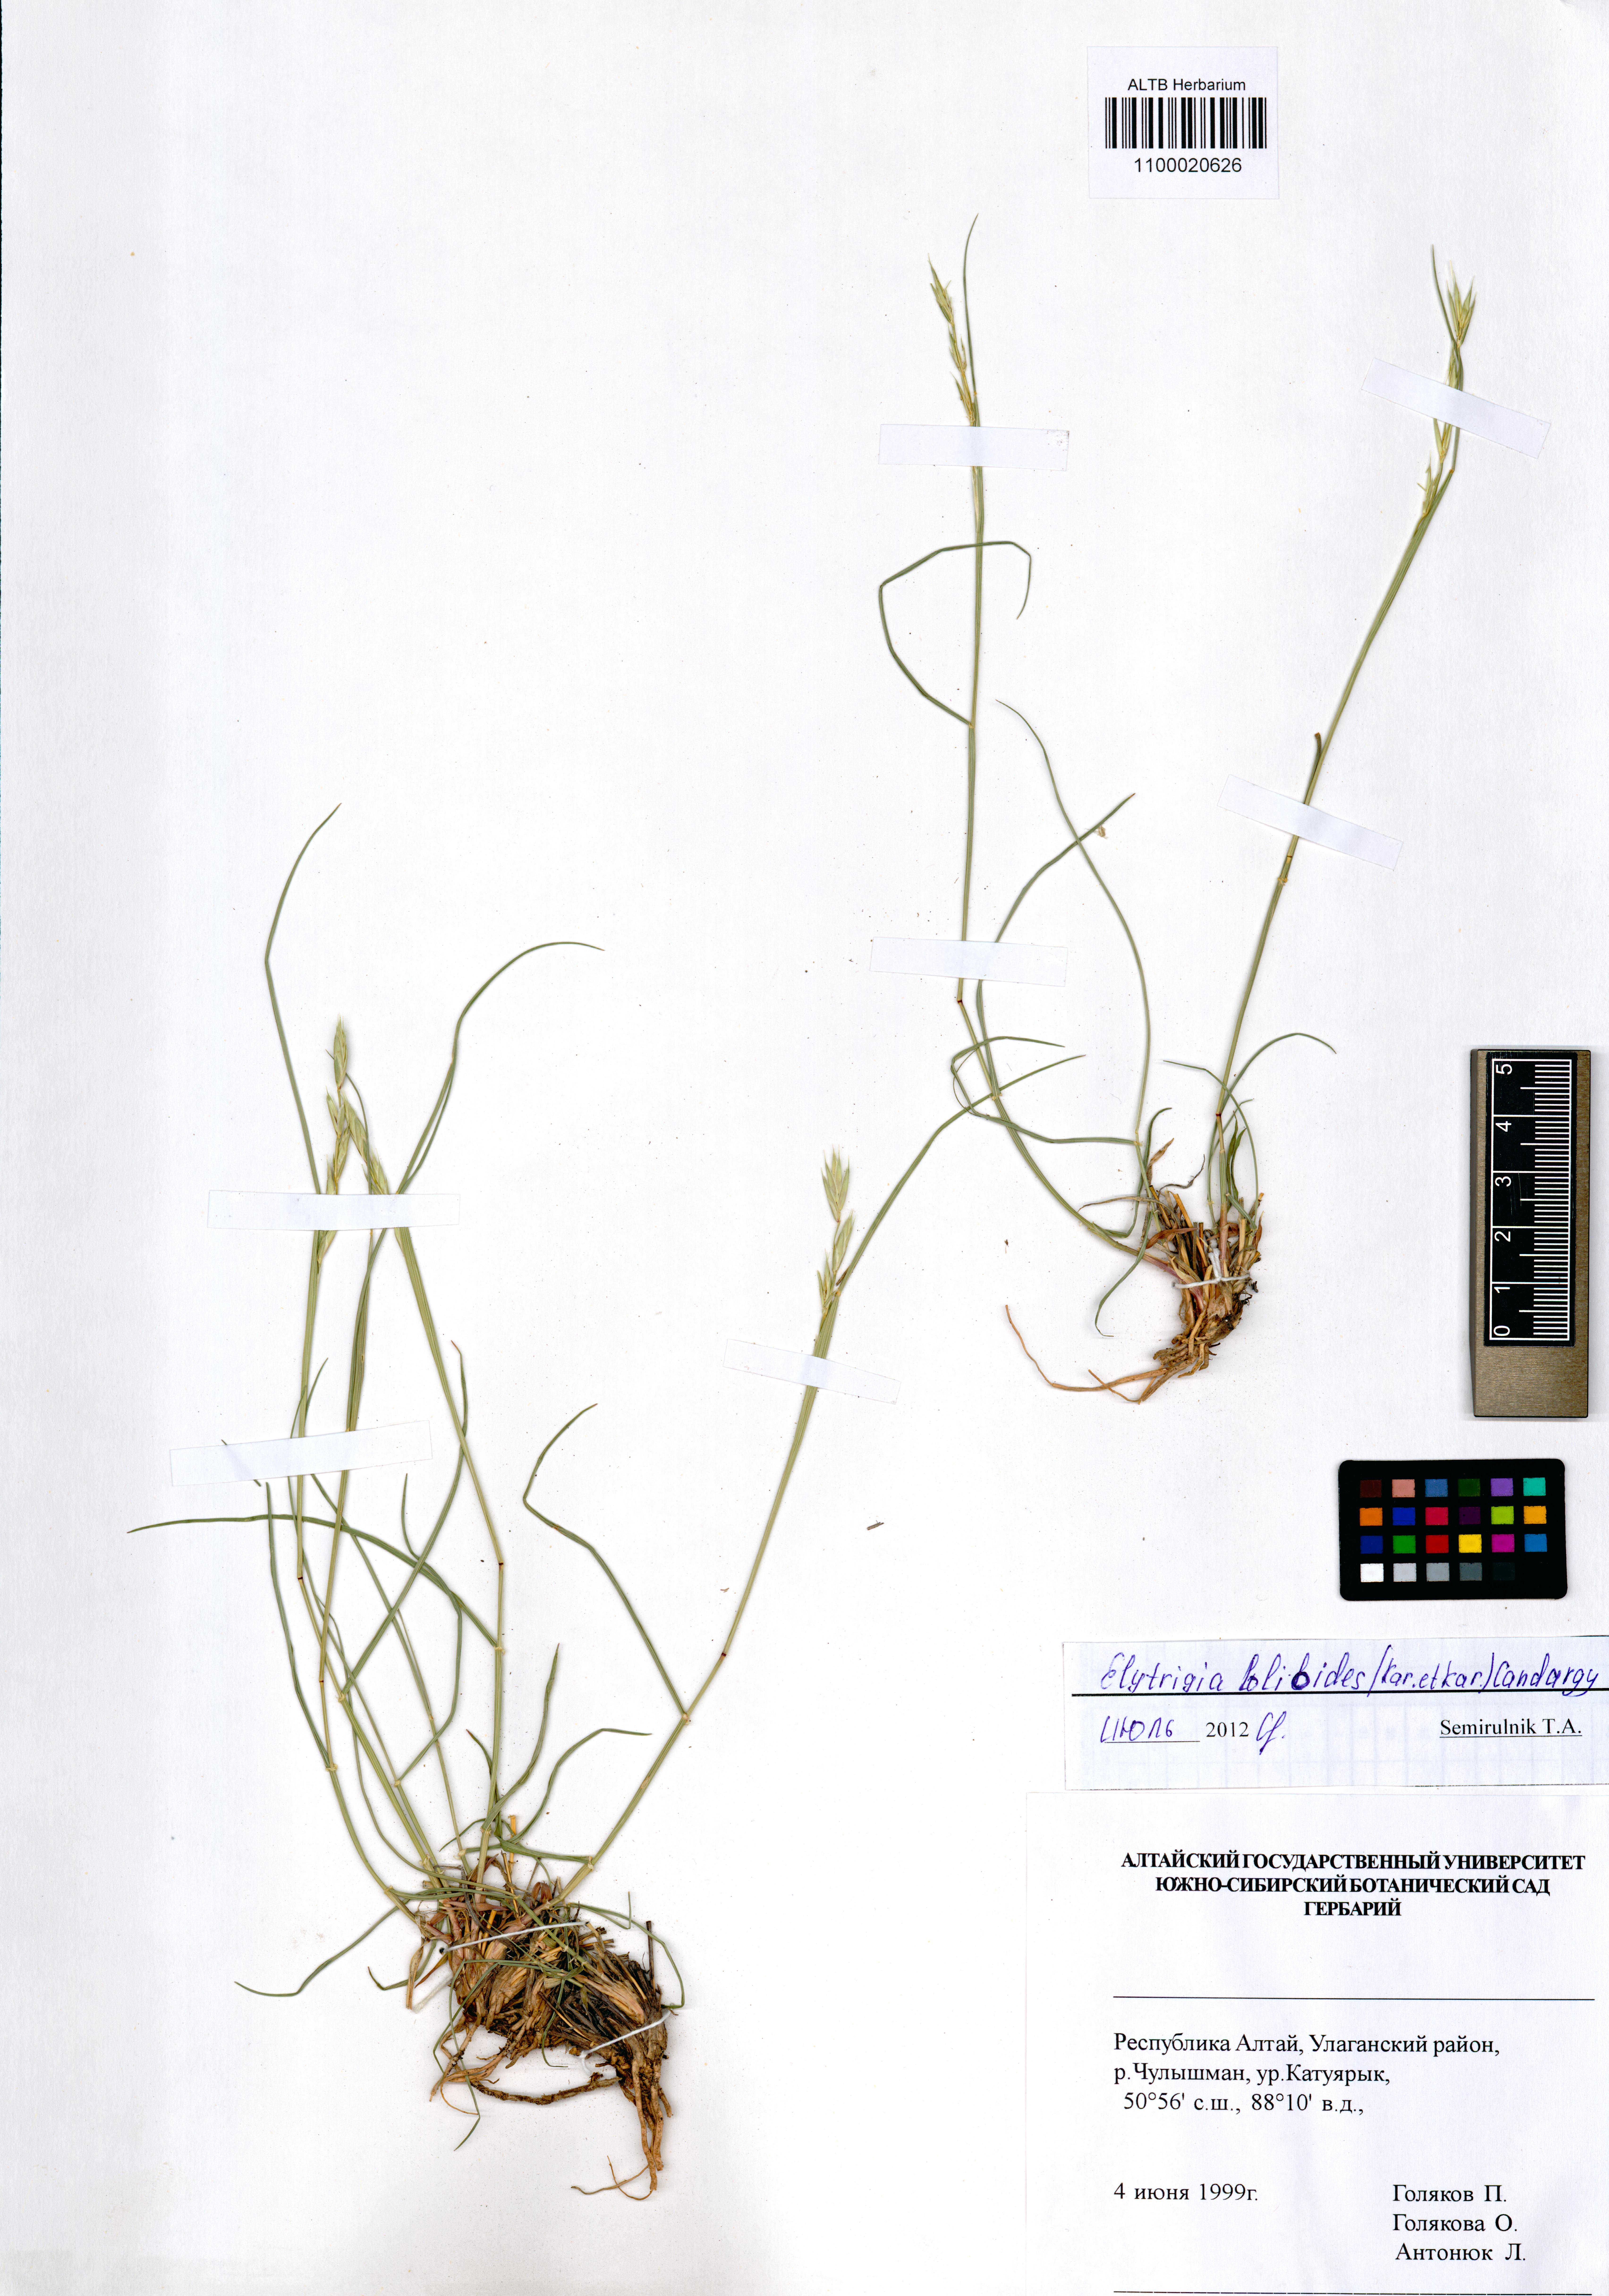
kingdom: Plantae
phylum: Tracheophyta
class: Liliopsida
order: Poales
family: Poaceae
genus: Elymus
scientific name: Elymus lolioides
